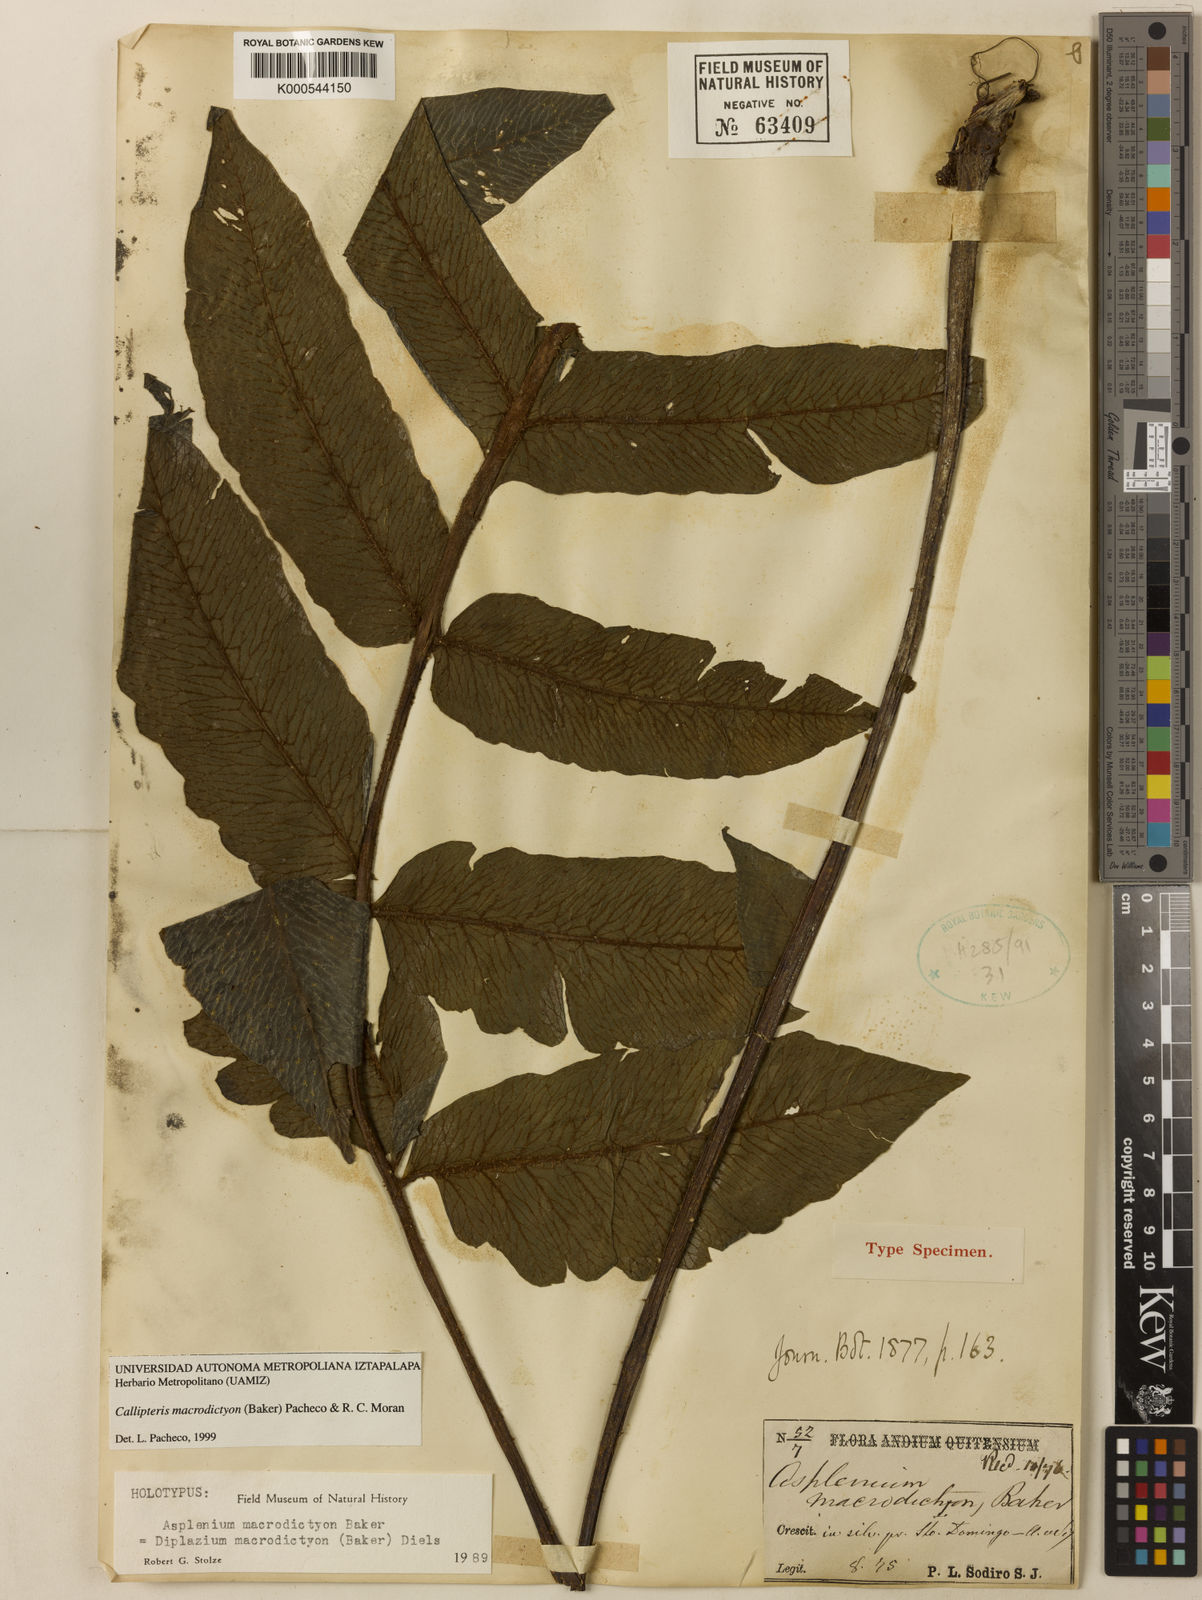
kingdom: Plantae
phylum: Tracheophyta
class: Polypodiopsida
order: Polypodiales
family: Athyriaceae
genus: Diplazium
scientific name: Diplazium macrodictyon
